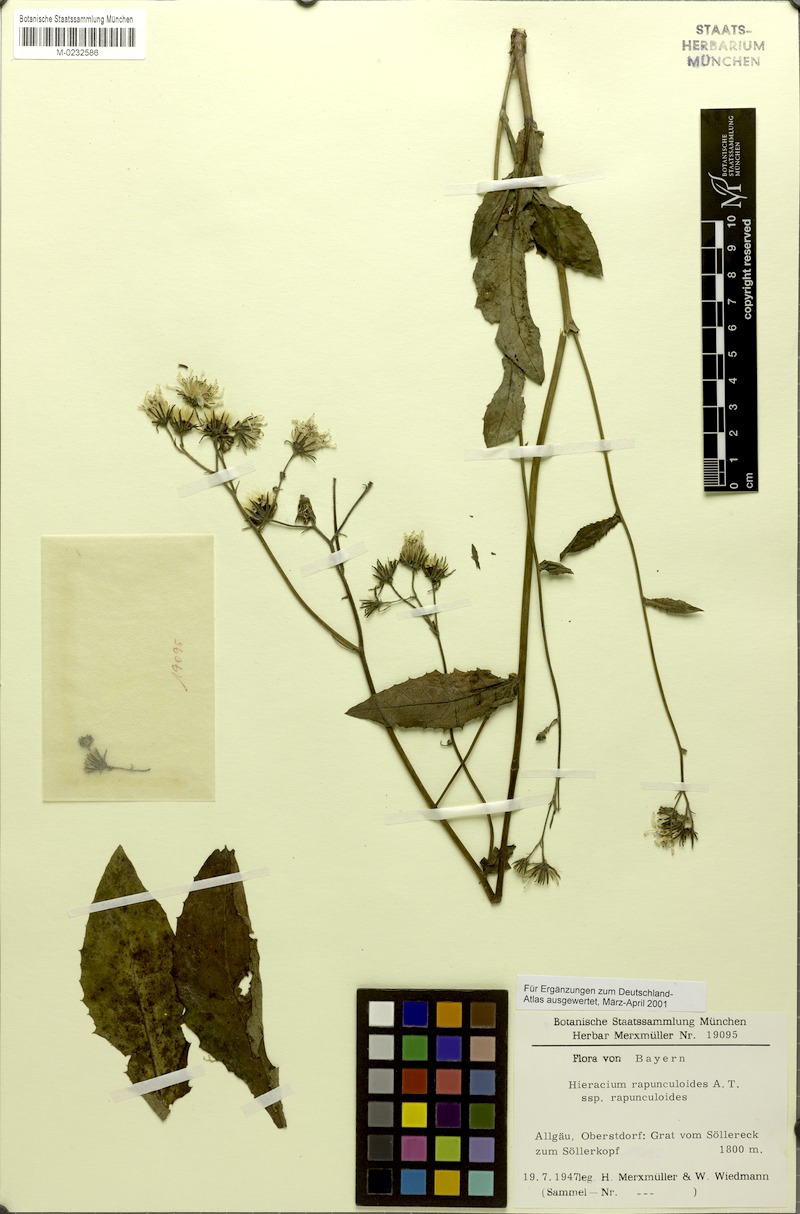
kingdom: Plantae
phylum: Tracheophyta
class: Magnoliopsida
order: Asterales
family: Asteraceae
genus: Hieracium
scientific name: Hieracium rapunculoides
